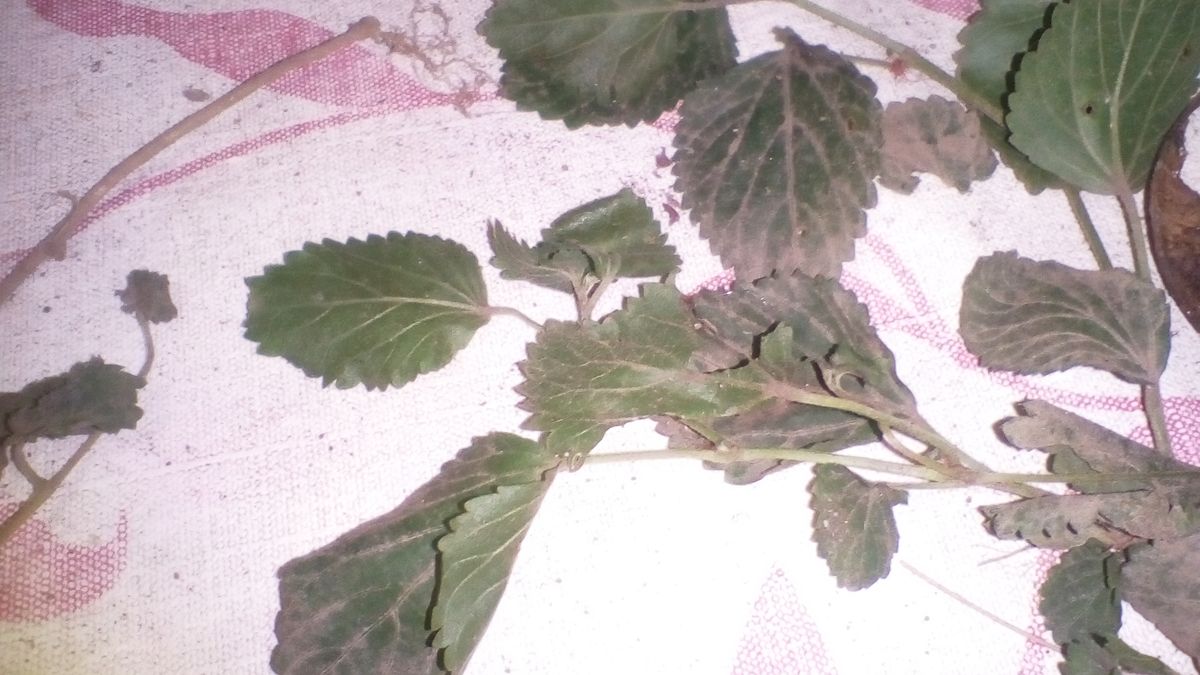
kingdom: Plantae
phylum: Tracheophyta
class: Magnoliopsida
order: Malpighiales
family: Euphorbiaceae
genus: Acalypha
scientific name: Acalypha pendula
